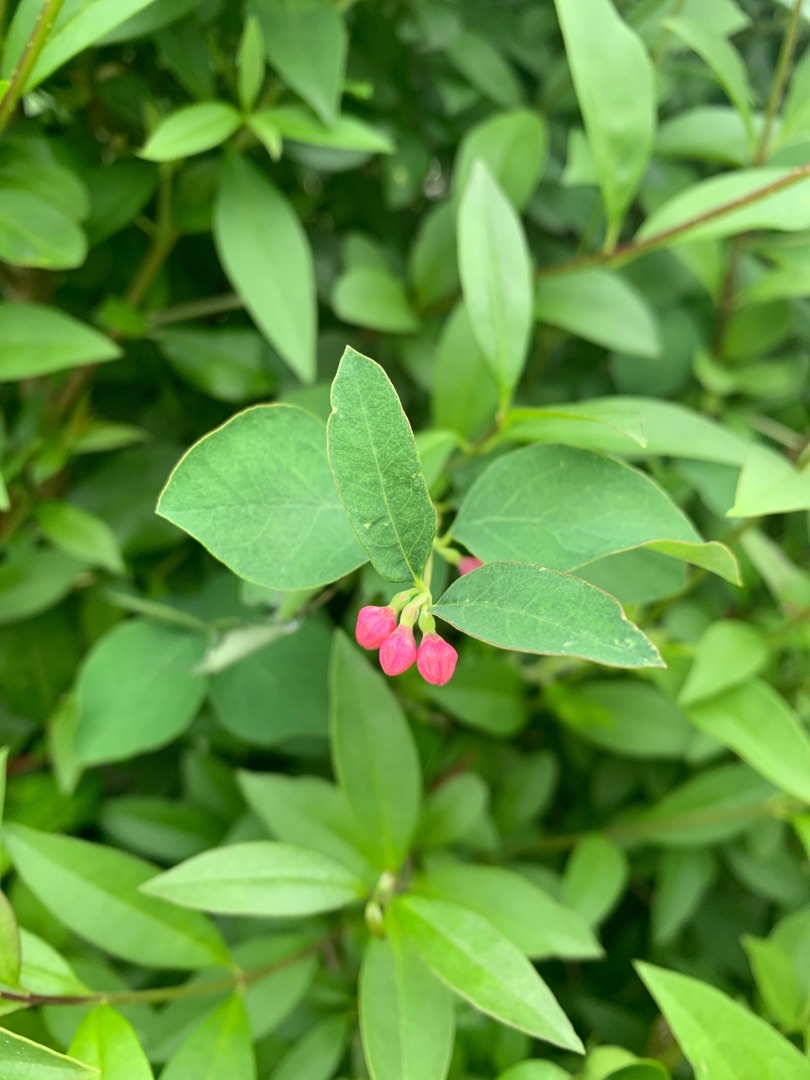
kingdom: Plantae
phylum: Tracheophyta
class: Magnoliopsida
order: Dipsacales
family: Caprifoliaceae
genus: Symphoricarpos
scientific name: Symphoricarpos albus
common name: Almindelig snebær
